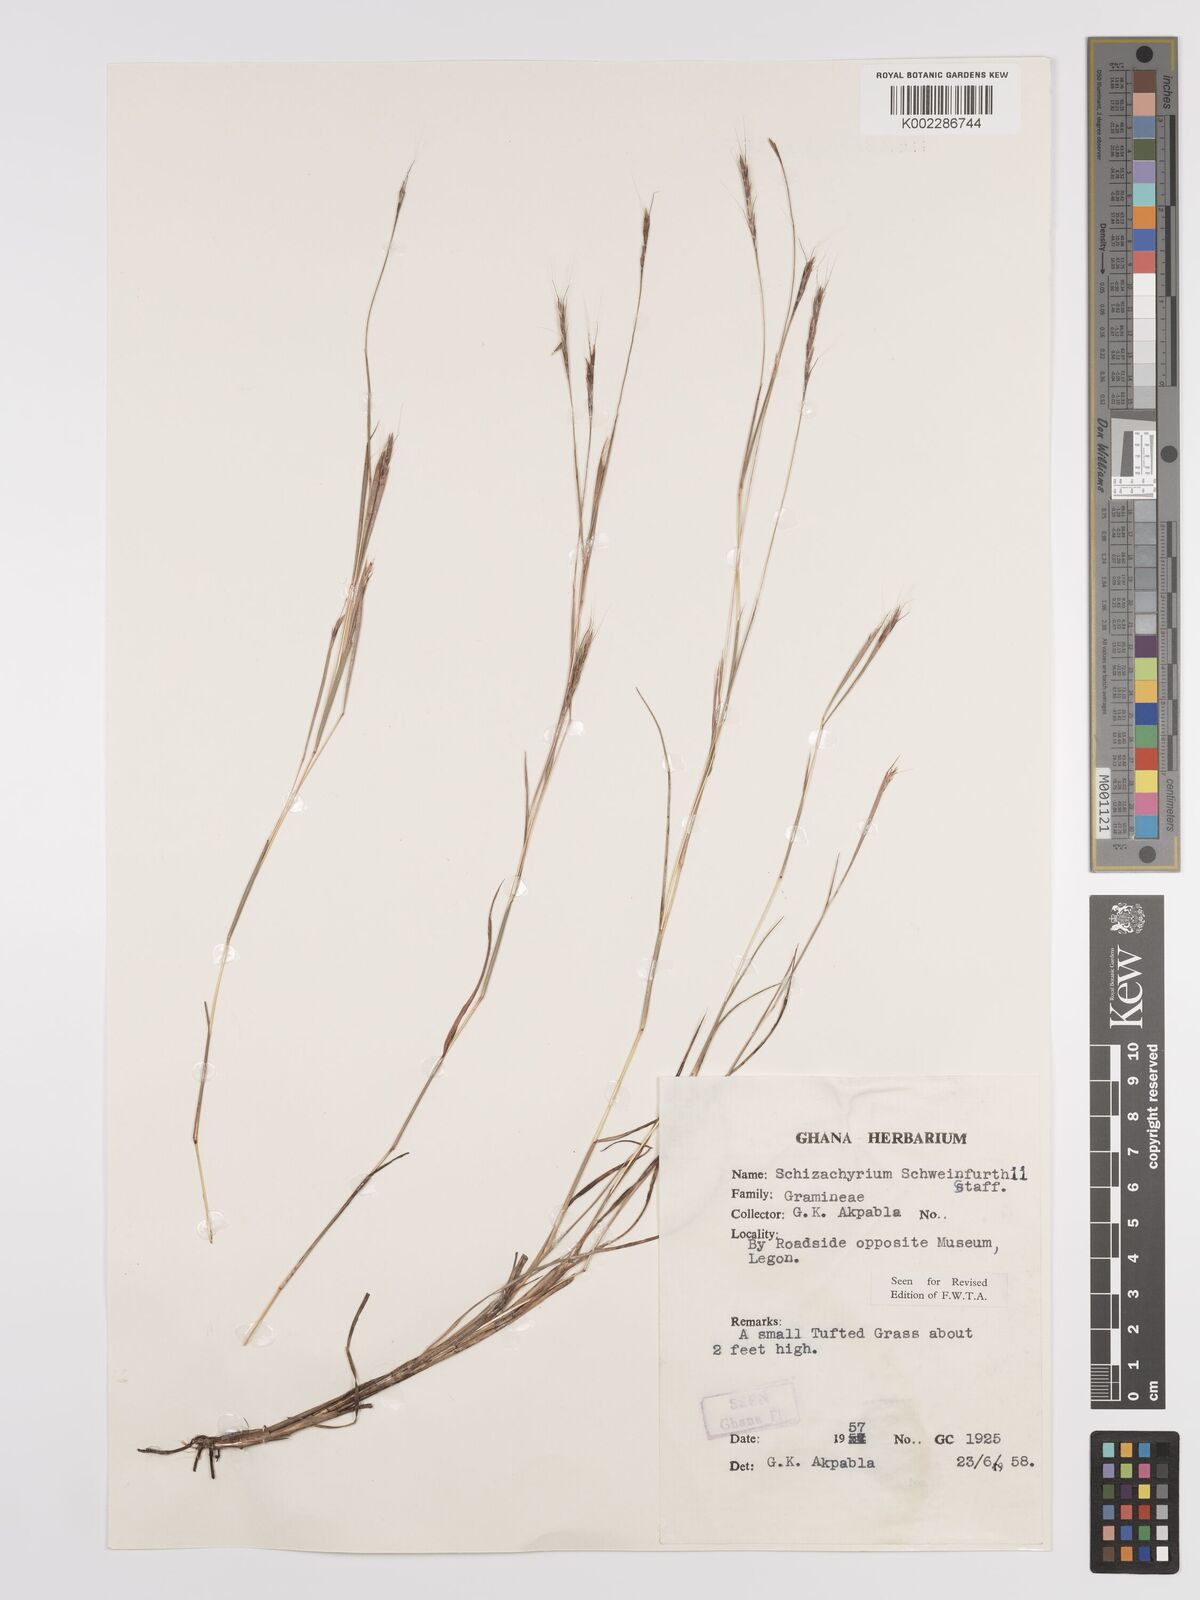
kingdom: Plantae
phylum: Tracheophyta
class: Liliopsida
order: Poales
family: Poaceae
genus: Andropogon
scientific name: Andropogon schweinfurthii
